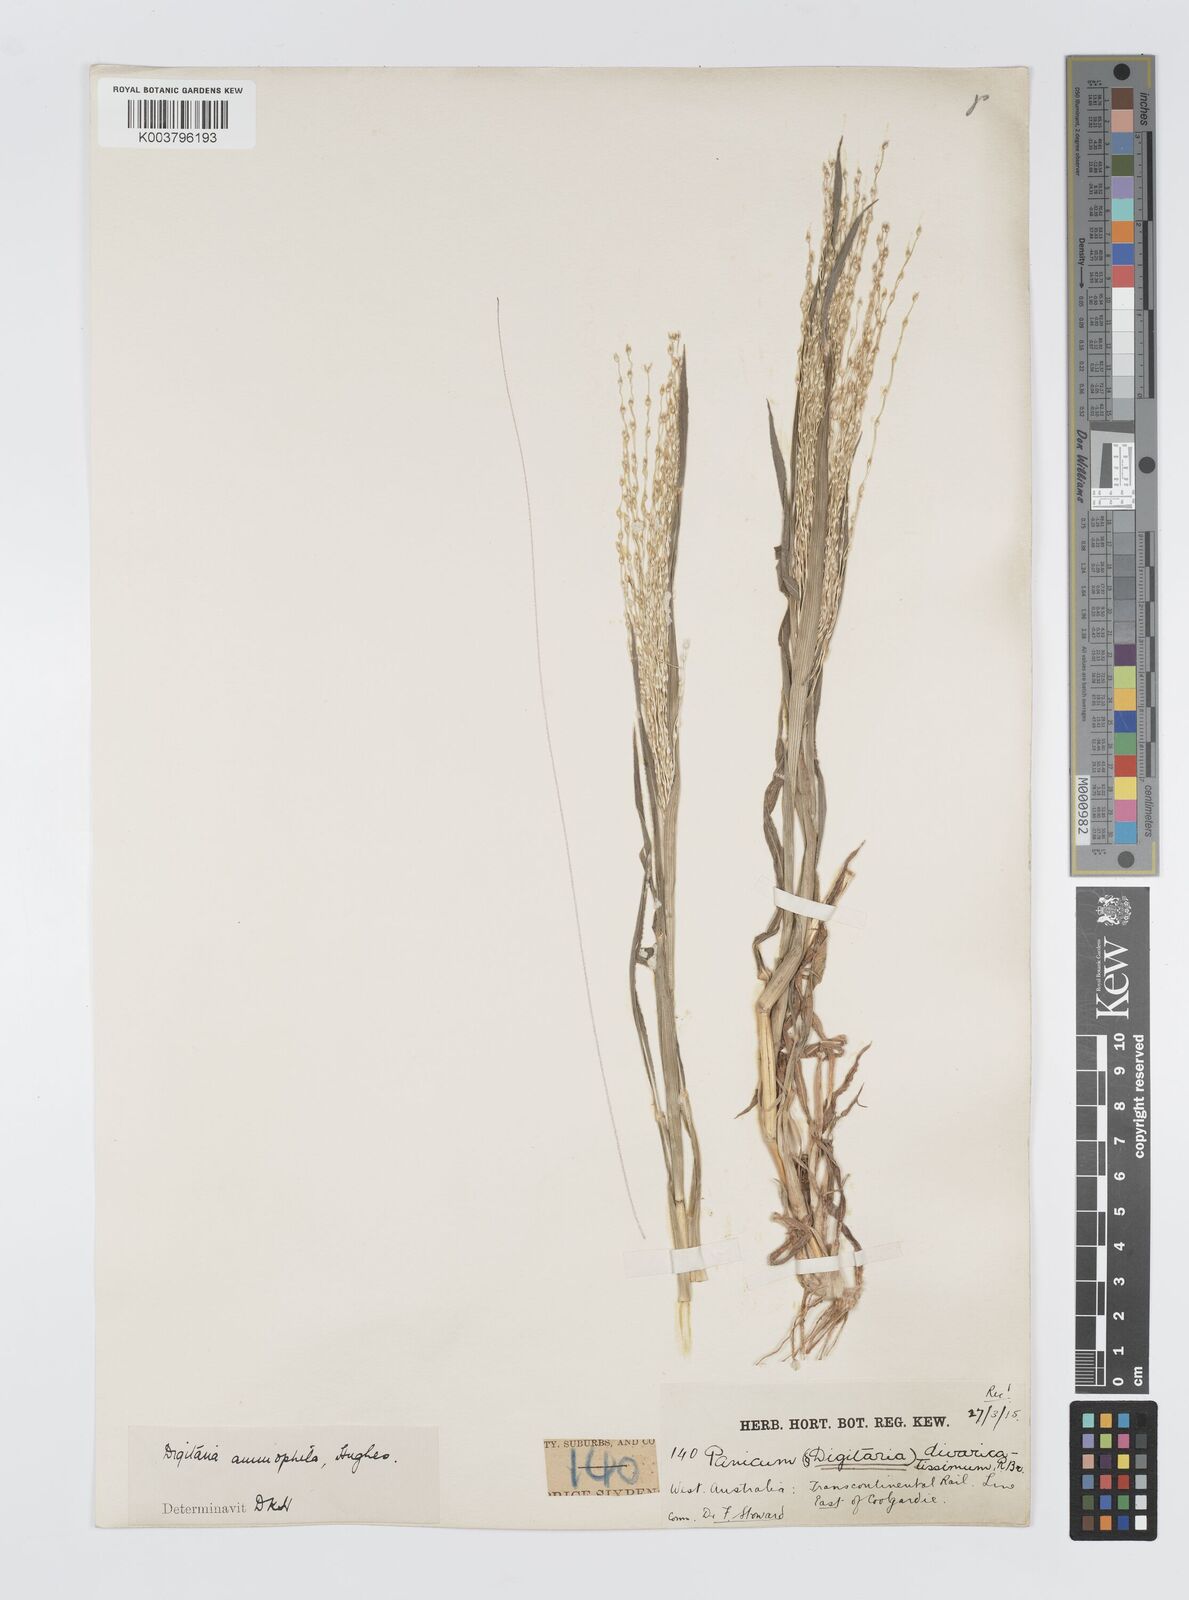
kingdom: Plantae
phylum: Tracheophyta
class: Liliopsida
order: Poales
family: Poaceae
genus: Digitaria
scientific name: Digitaria ammophila
